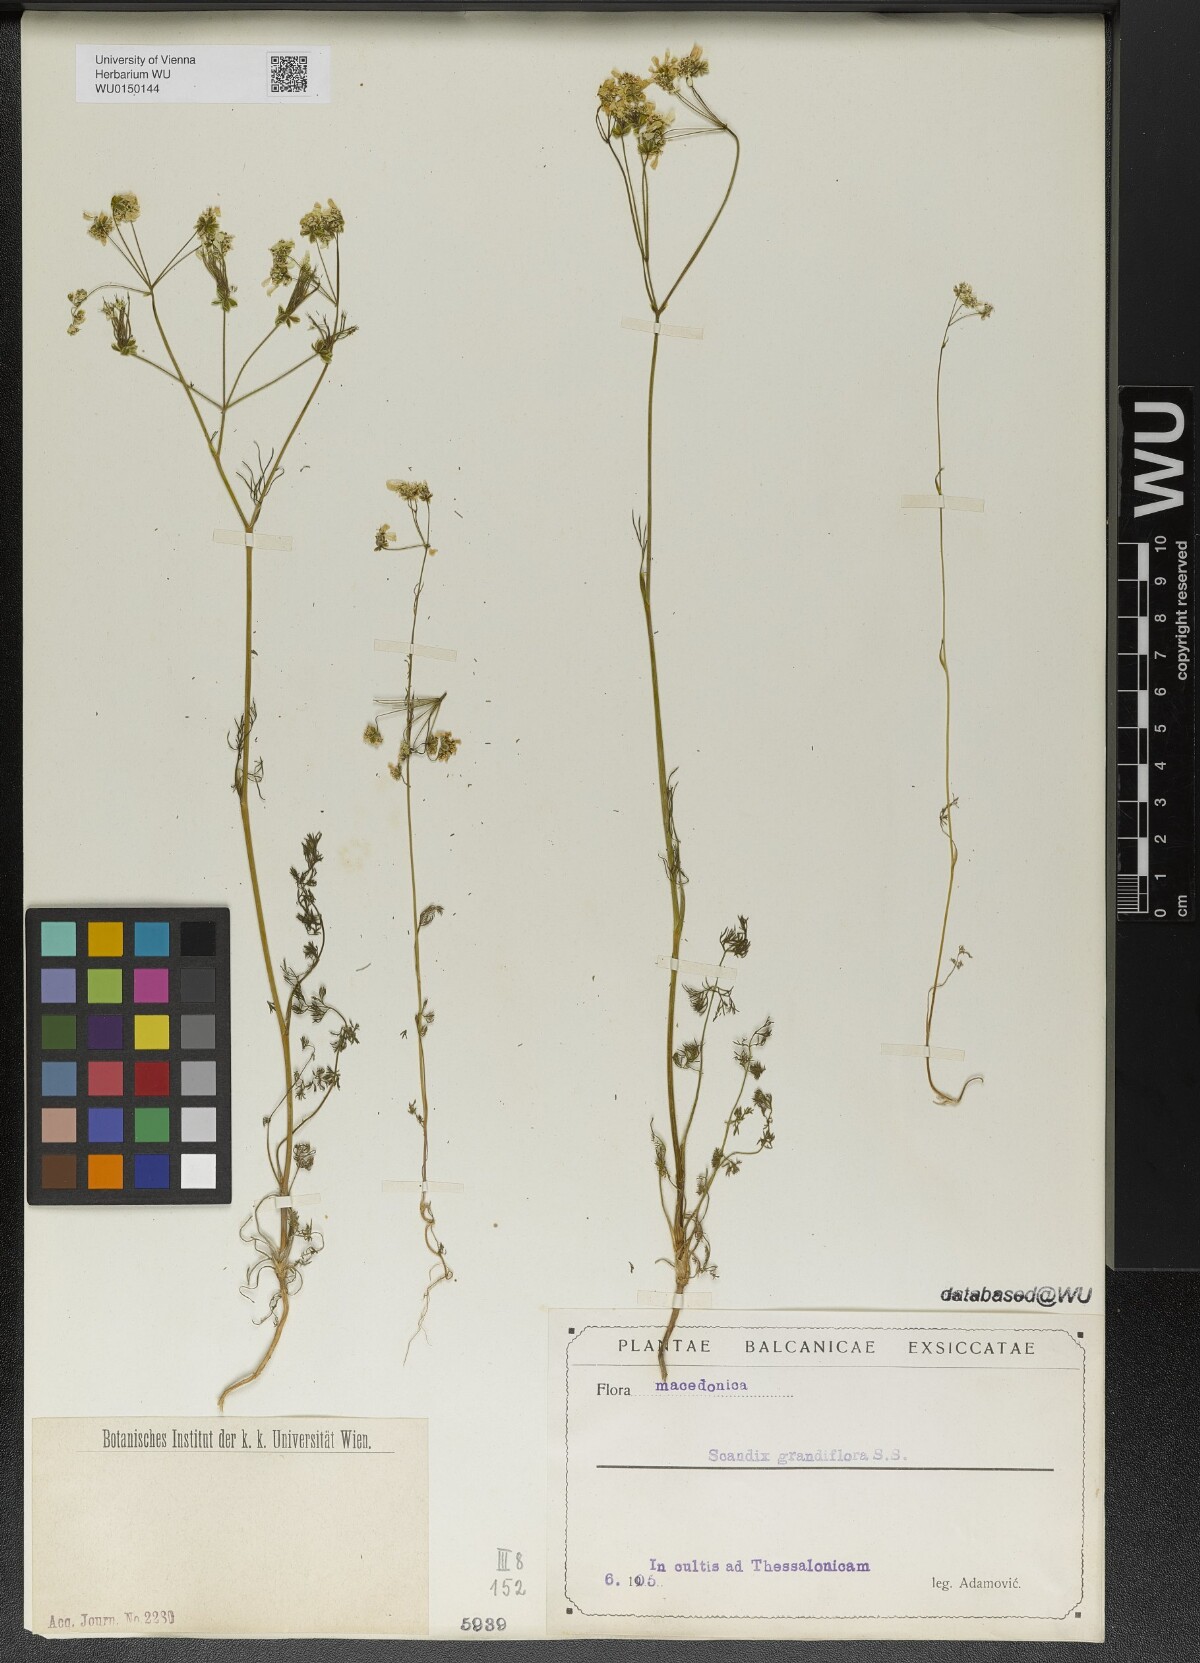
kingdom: Plantae
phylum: Tracheophyta
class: Magnoliopsida
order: Apiales
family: Apiaceae
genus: Scandix
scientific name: Scandix australis
